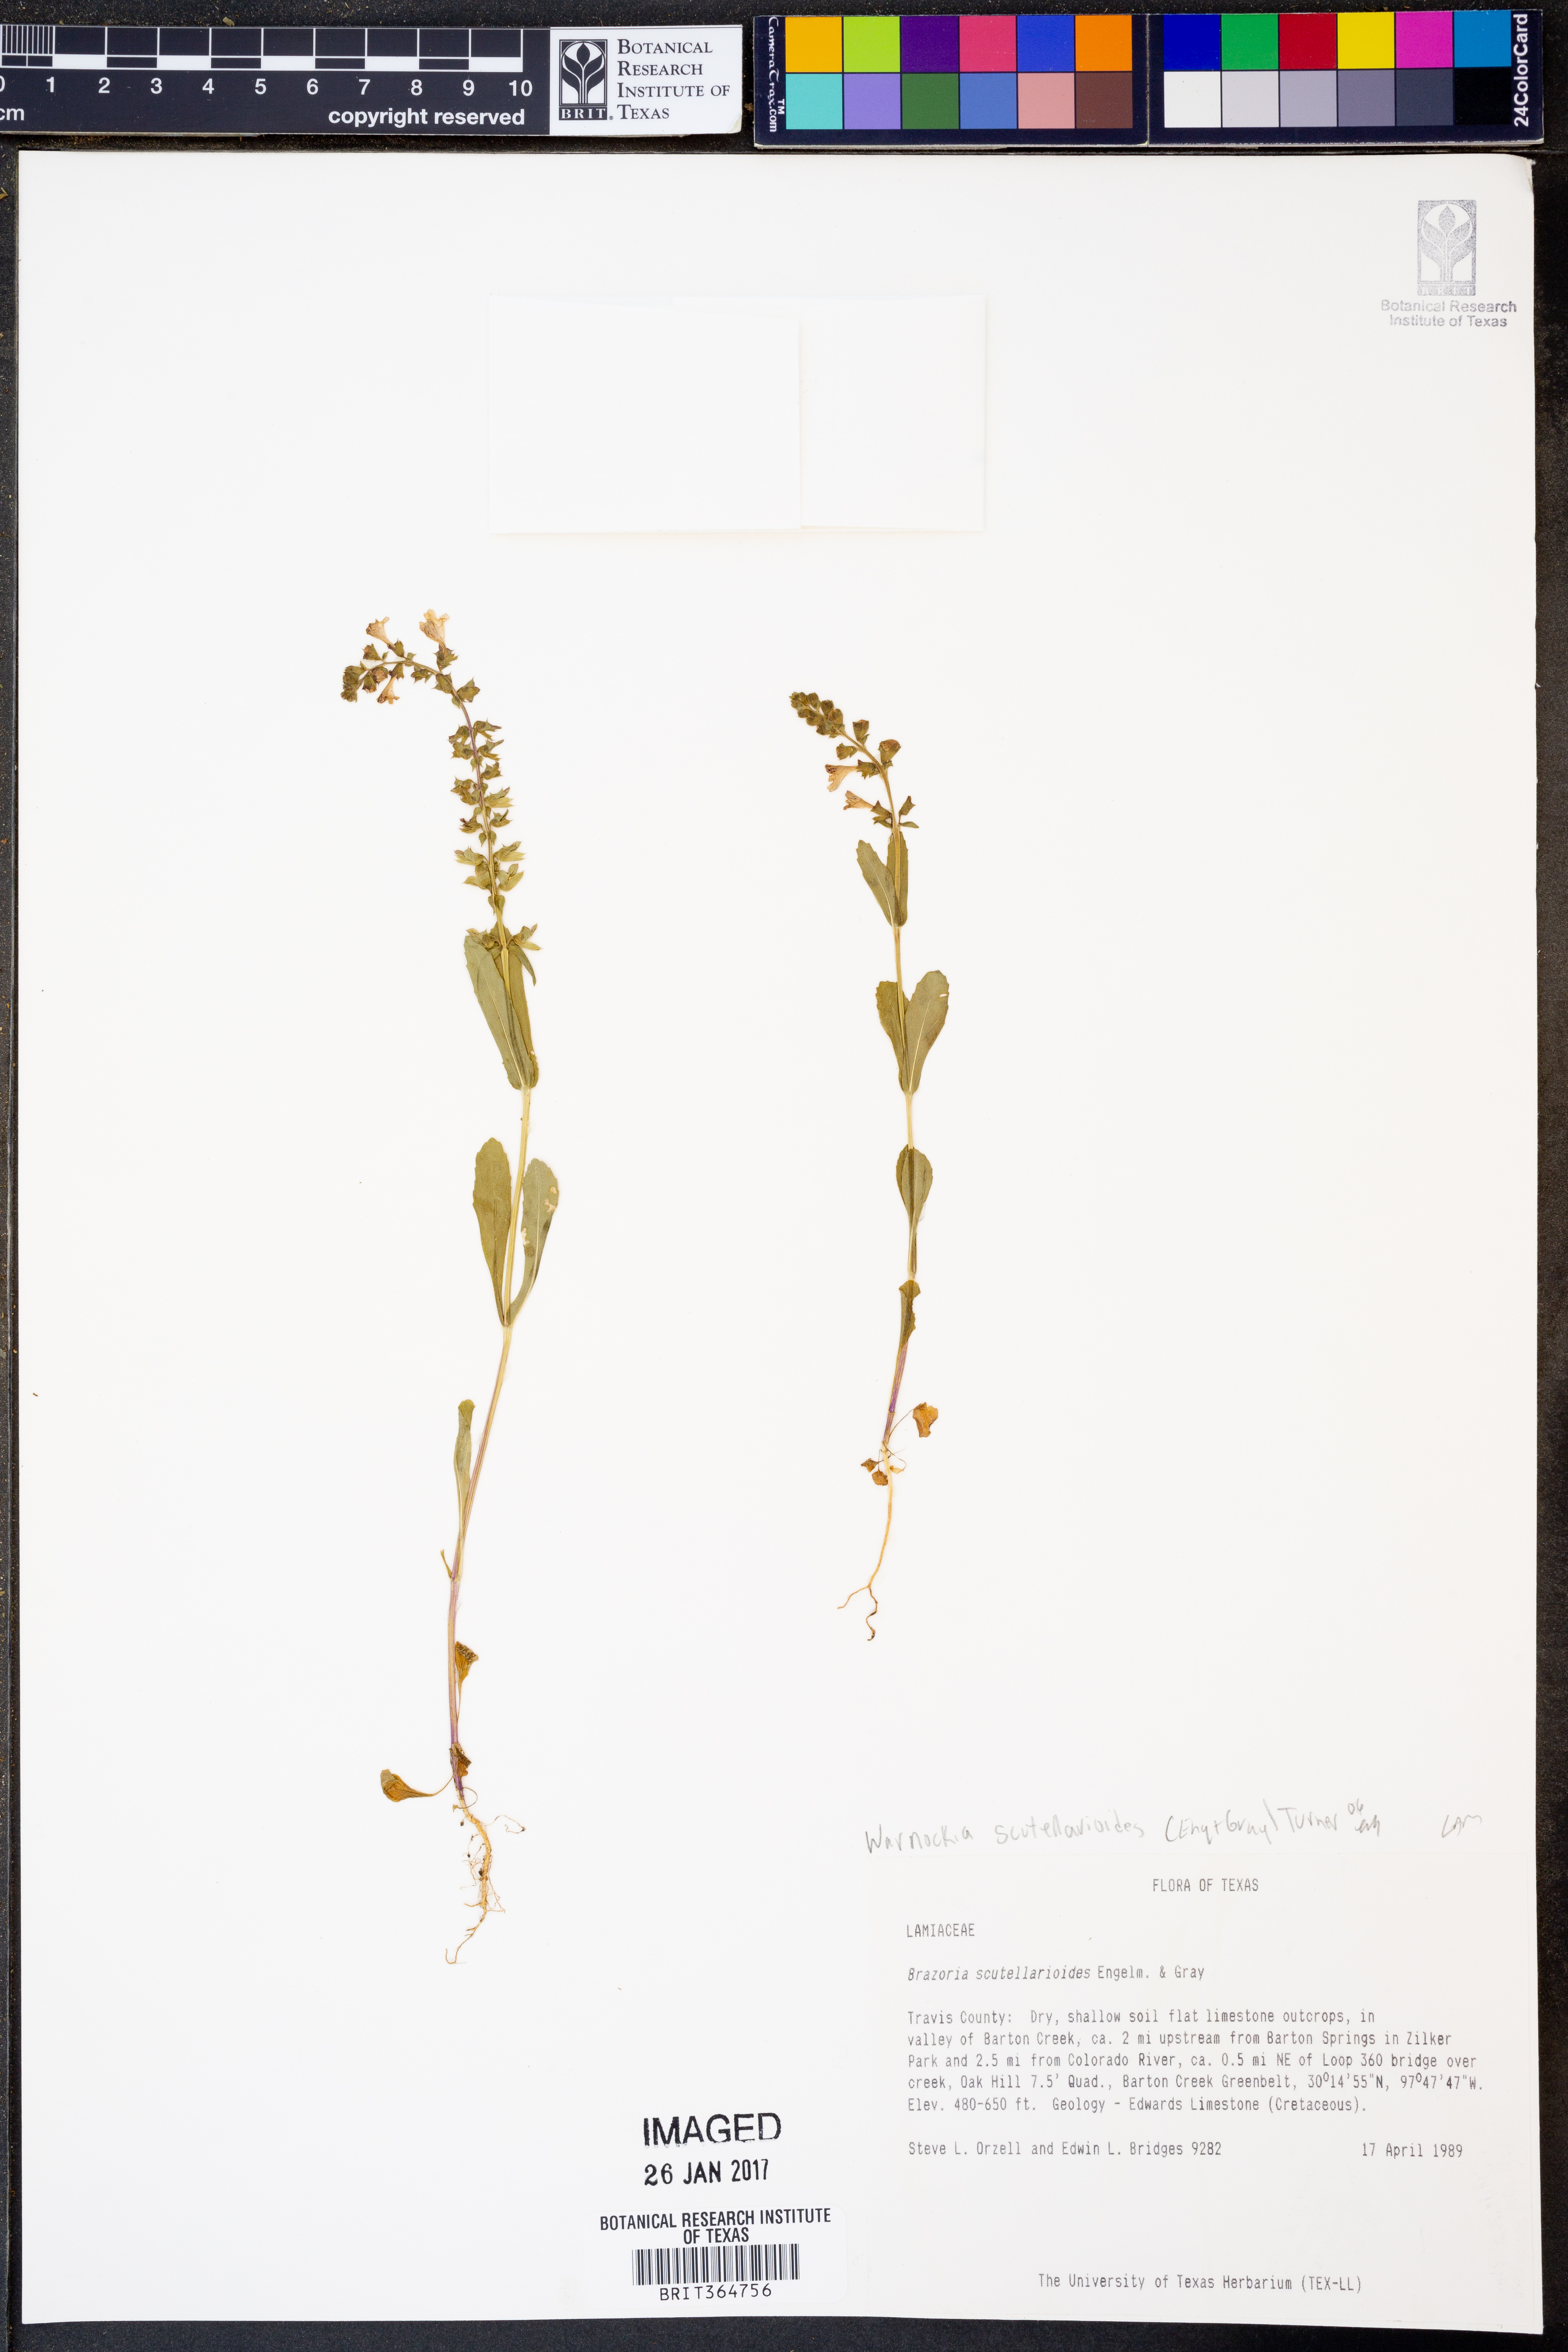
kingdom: Plantae
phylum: Tracheophyta
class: Magnoliopsida
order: Lamiales
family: Lamiaceae
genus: Warnockia
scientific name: Warnockia scutellarioides
